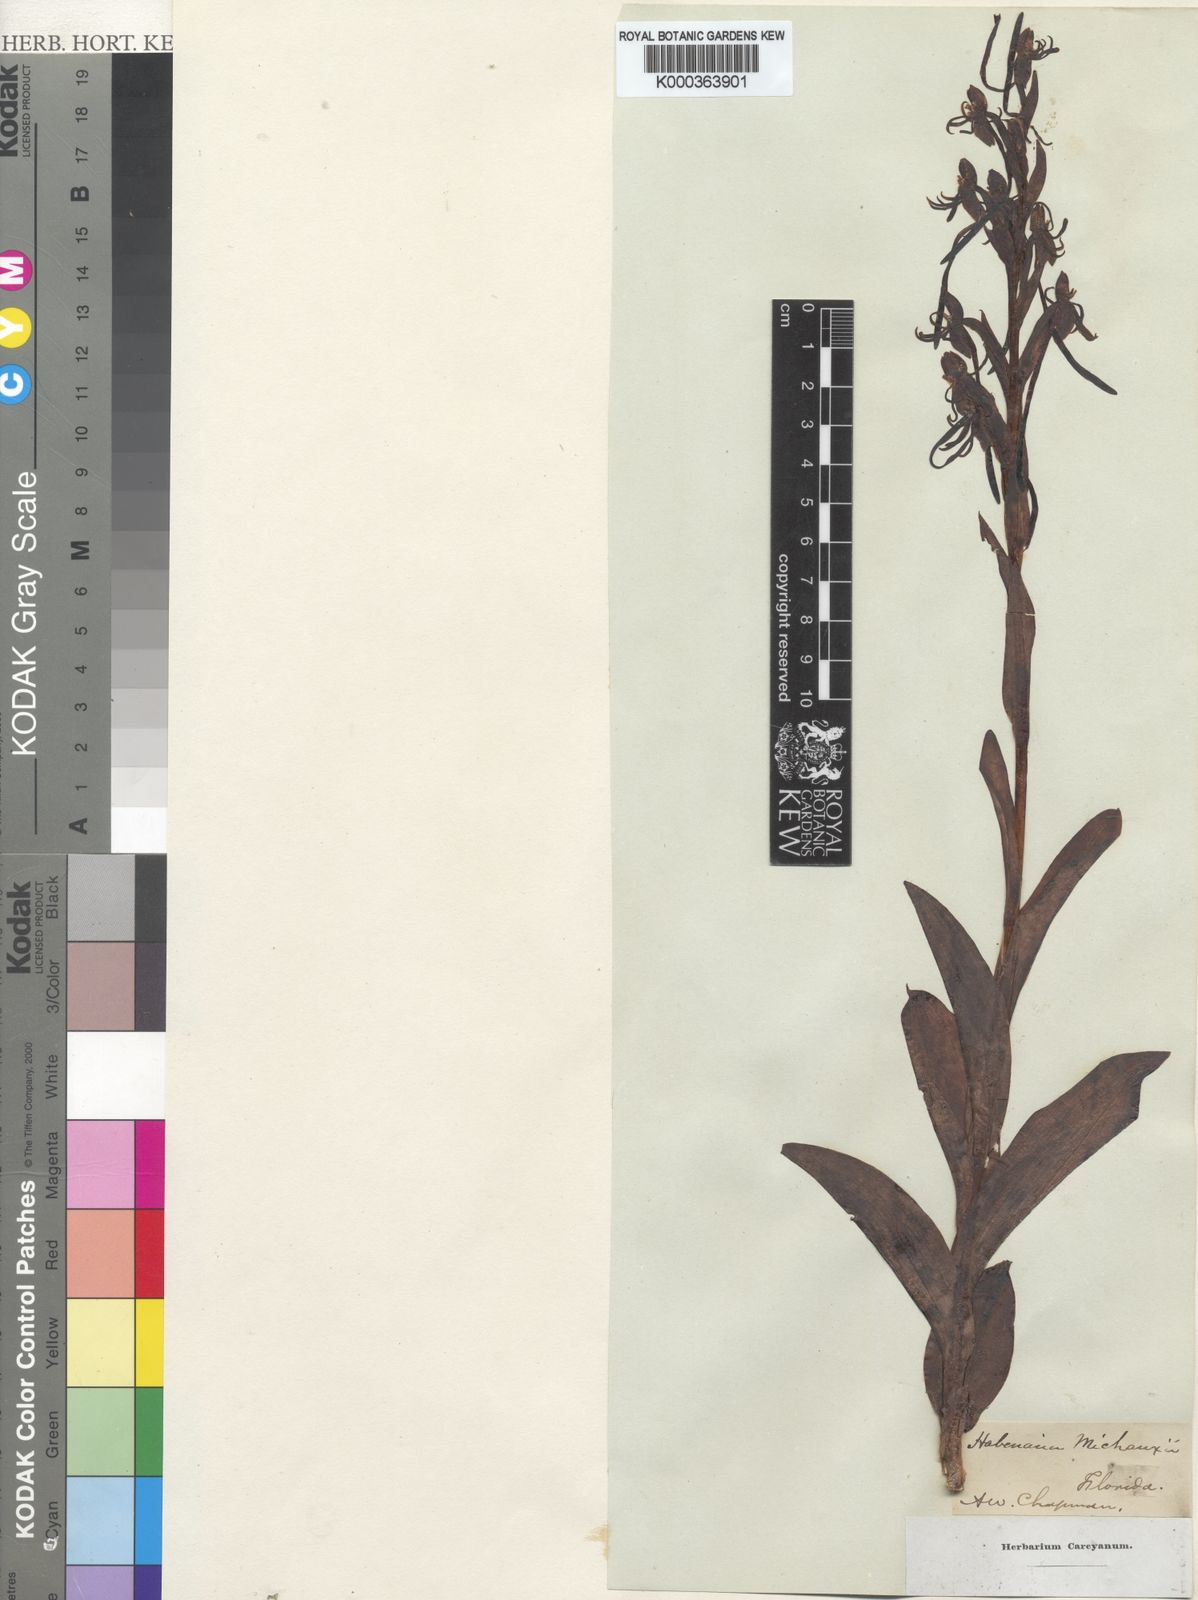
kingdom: Plantae
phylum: Tracheophyta
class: Liliopsida
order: Asparagales
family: Orchidaceae
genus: Habenaria
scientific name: Habenaria
